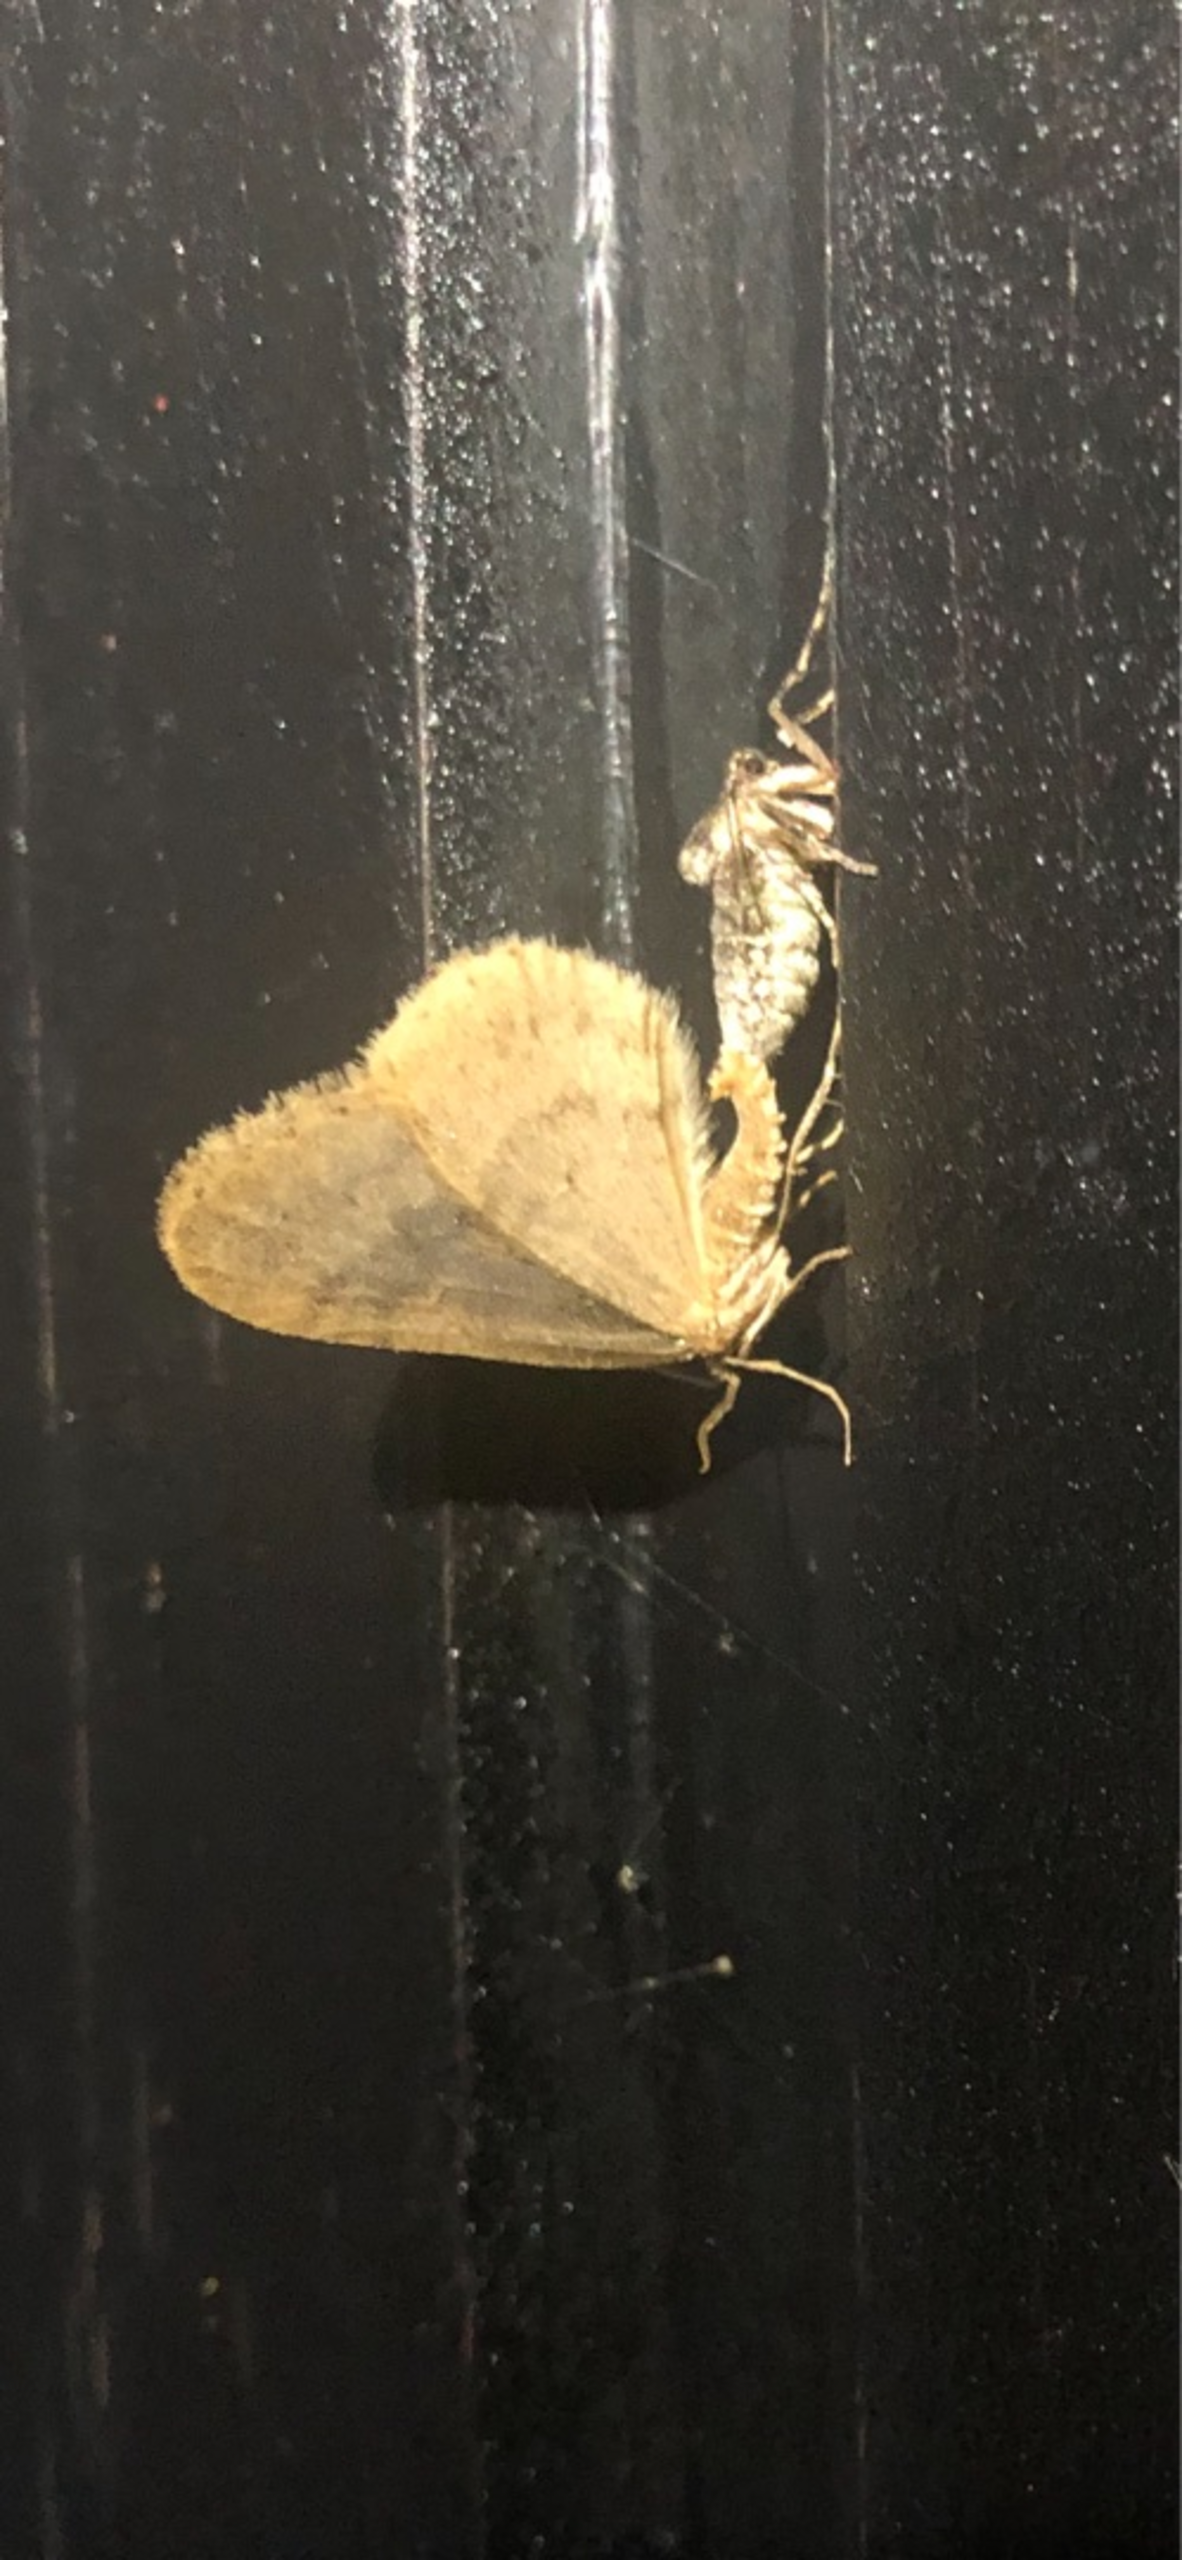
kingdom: Animalia
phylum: Arthropoda
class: Insecta
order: Lepidoptera
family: Geometridae
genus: Operophtera
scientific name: Operophtera brumata
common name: Lille frostmåler
